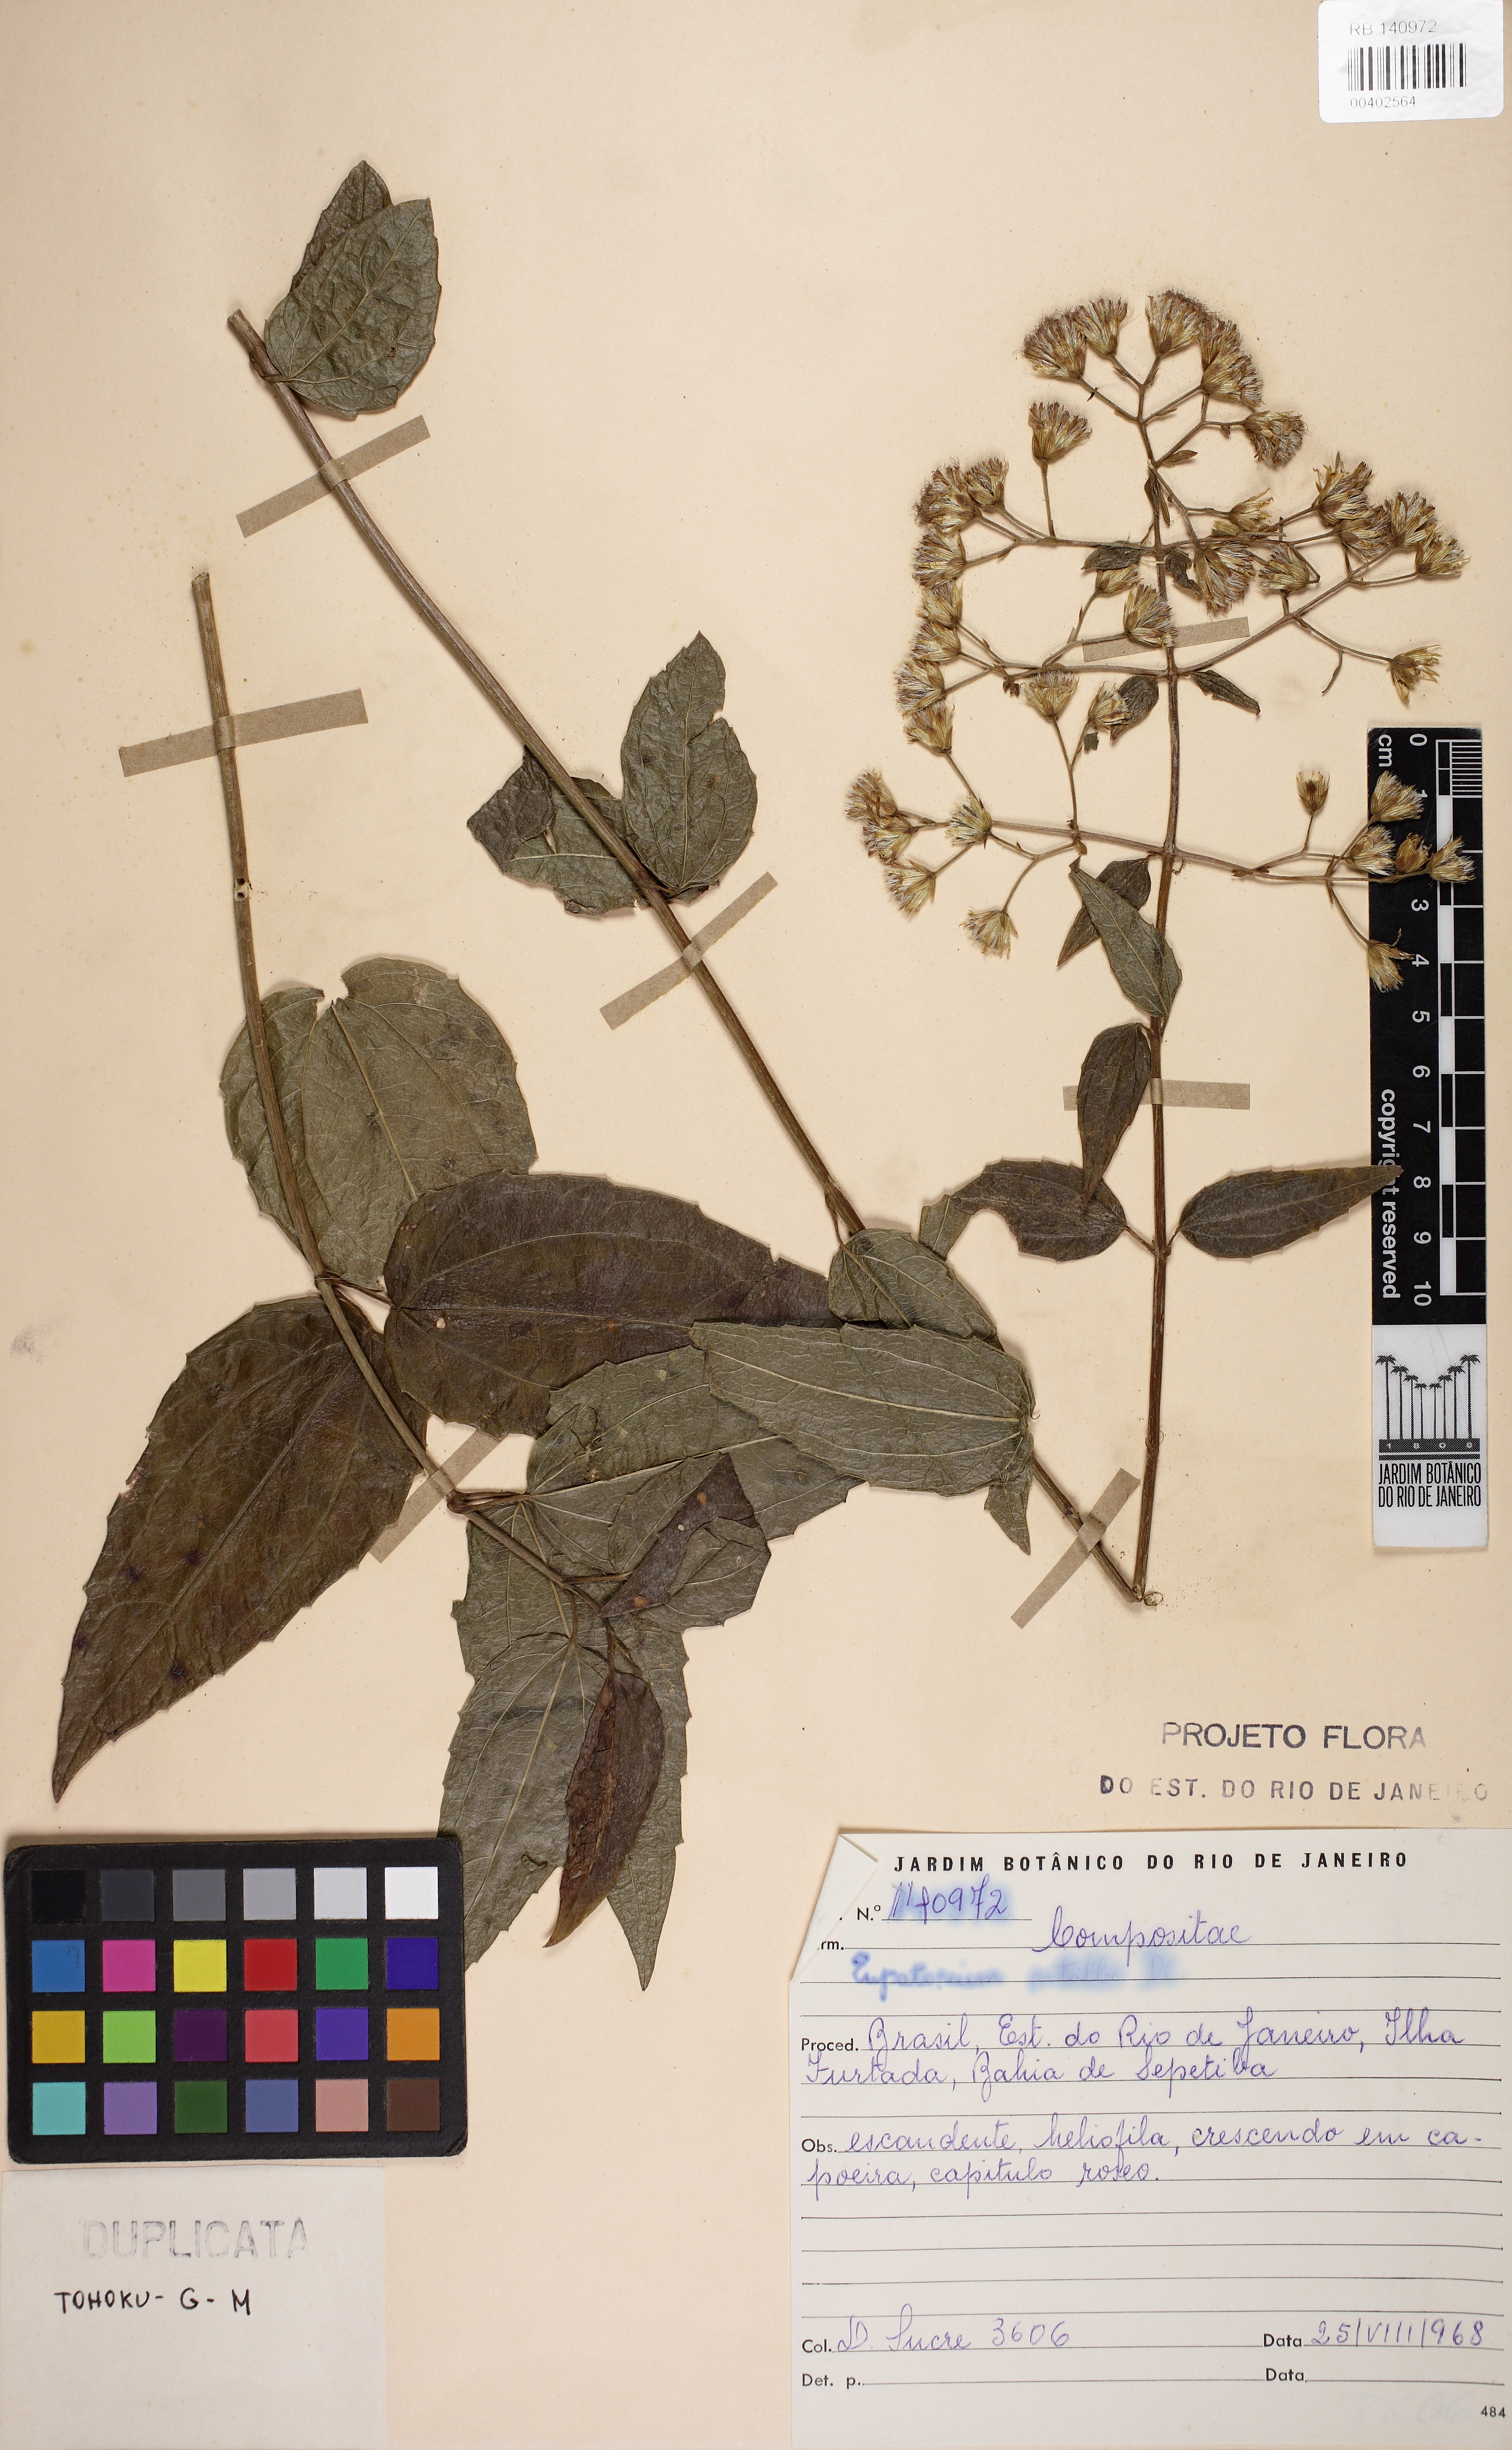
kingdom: Plantae
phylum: Tracheophyta
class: Magnoliopsida
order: Asterales
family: Asteraceae
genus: Heterocondylus
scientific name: Heterocondylus vitalbae
